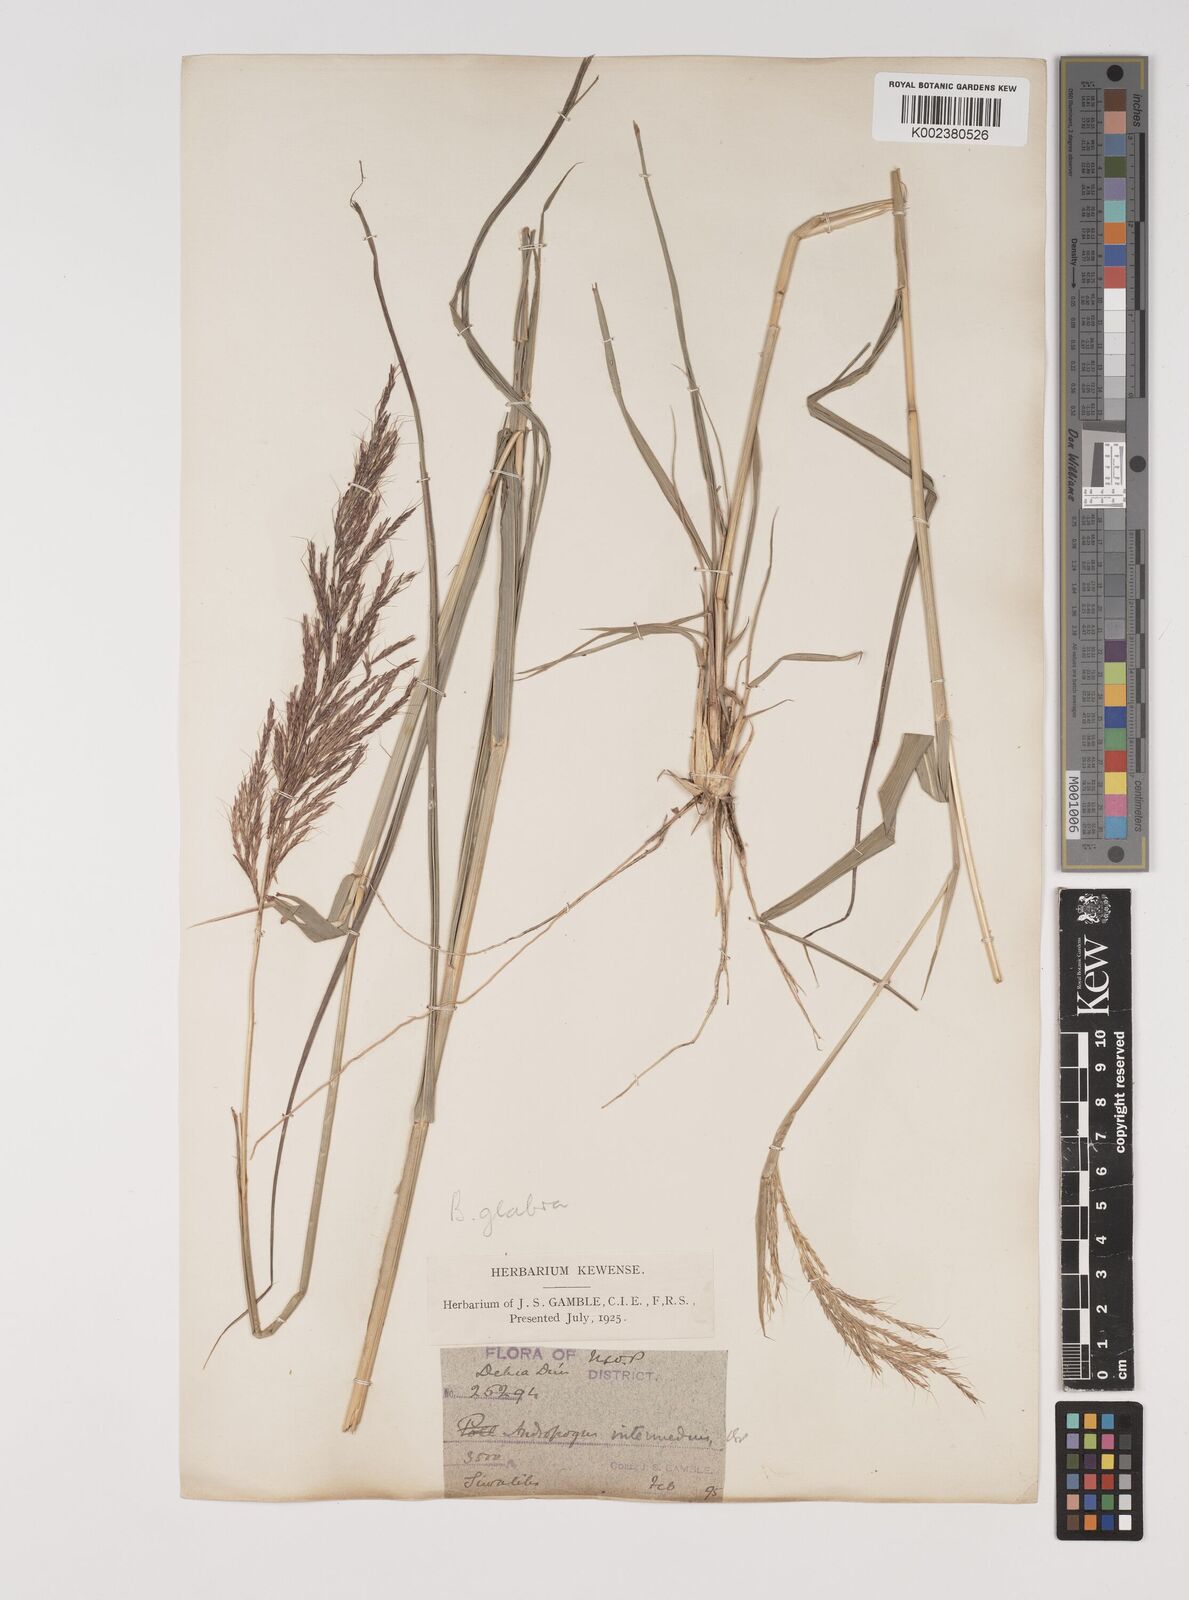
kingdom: Plantae
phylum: Tracheophyta
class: Liliopsida
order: Poales
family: Poaceae
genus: Bothriochloa
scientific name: Bothriochloa bladhii
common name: Caucasian bluestem
